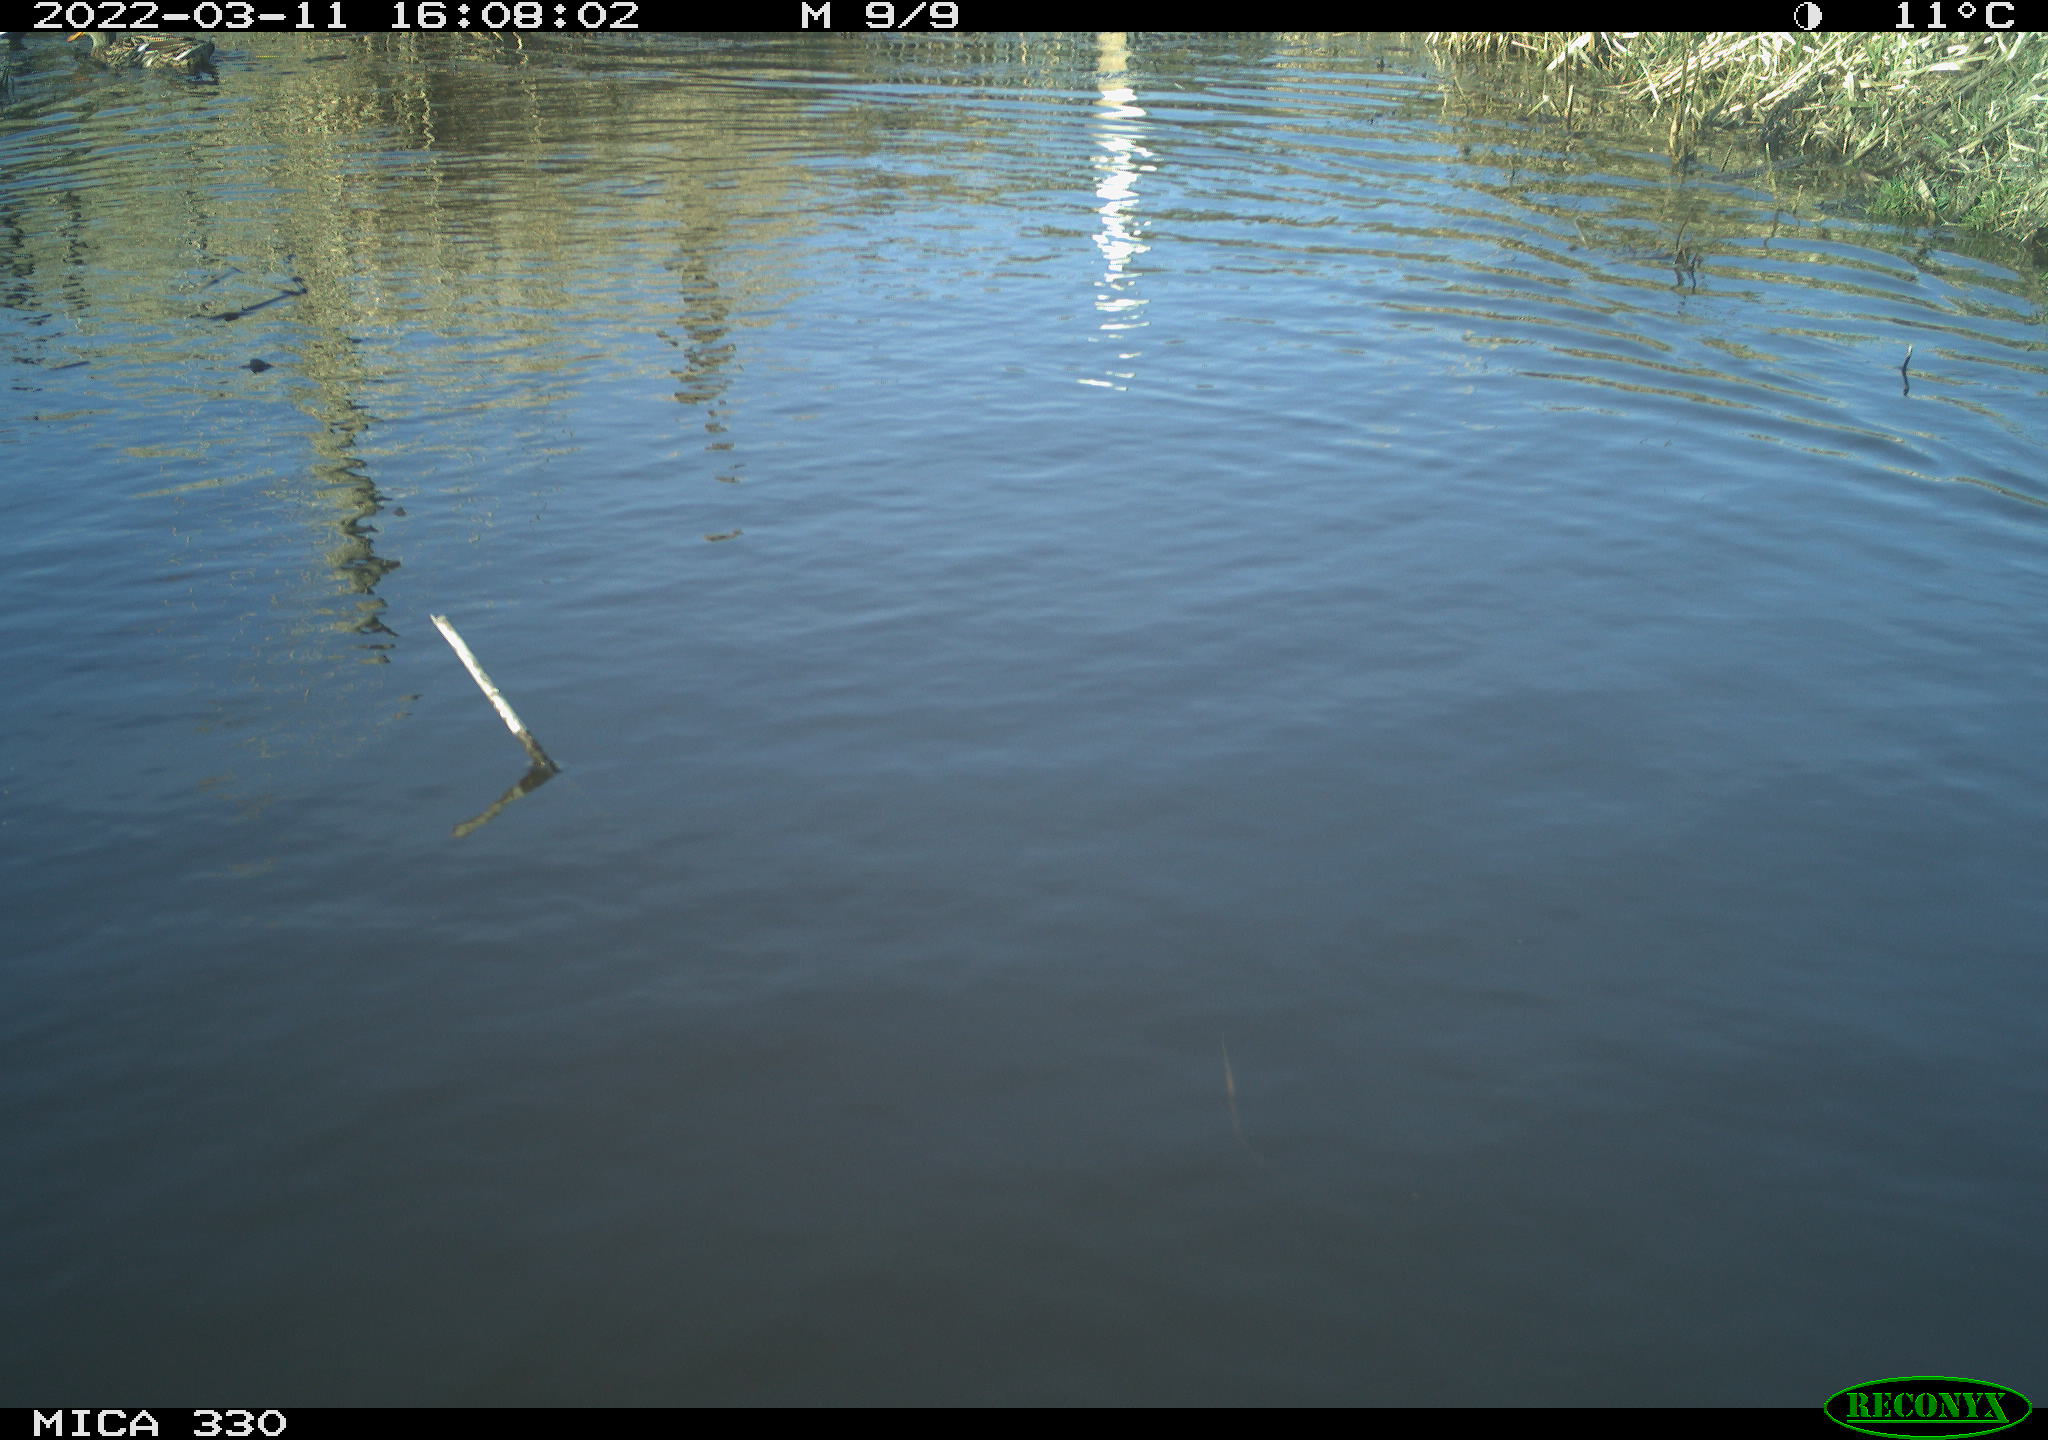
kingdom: Animalia
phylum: Chordata
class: Aves
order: Anseriformes
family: Anatidae
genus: Anas
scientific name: Anas platyrhynchos
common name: Mallard
